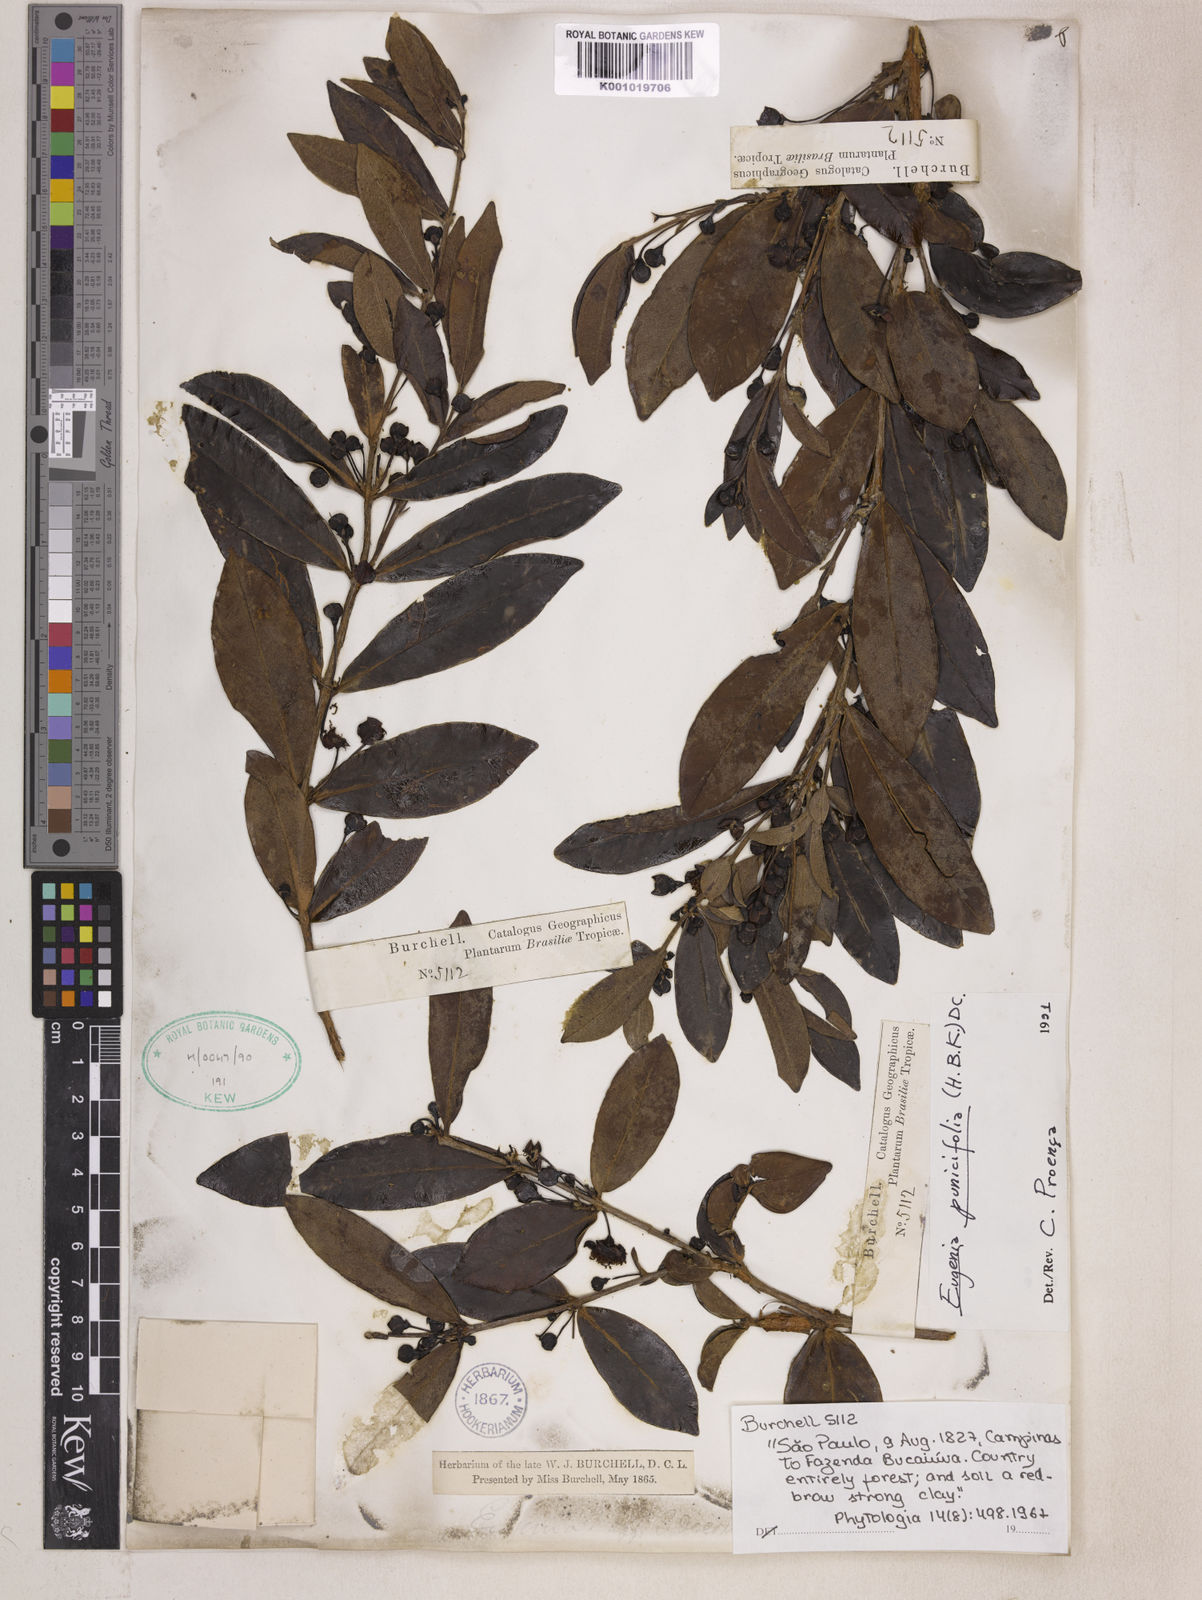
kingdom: Plantae
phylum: Tracheophyta
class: Magnoliopsida
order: Myrtales
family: Myrtaceae
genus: Eugenia
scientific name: Eugenia punicifolia
